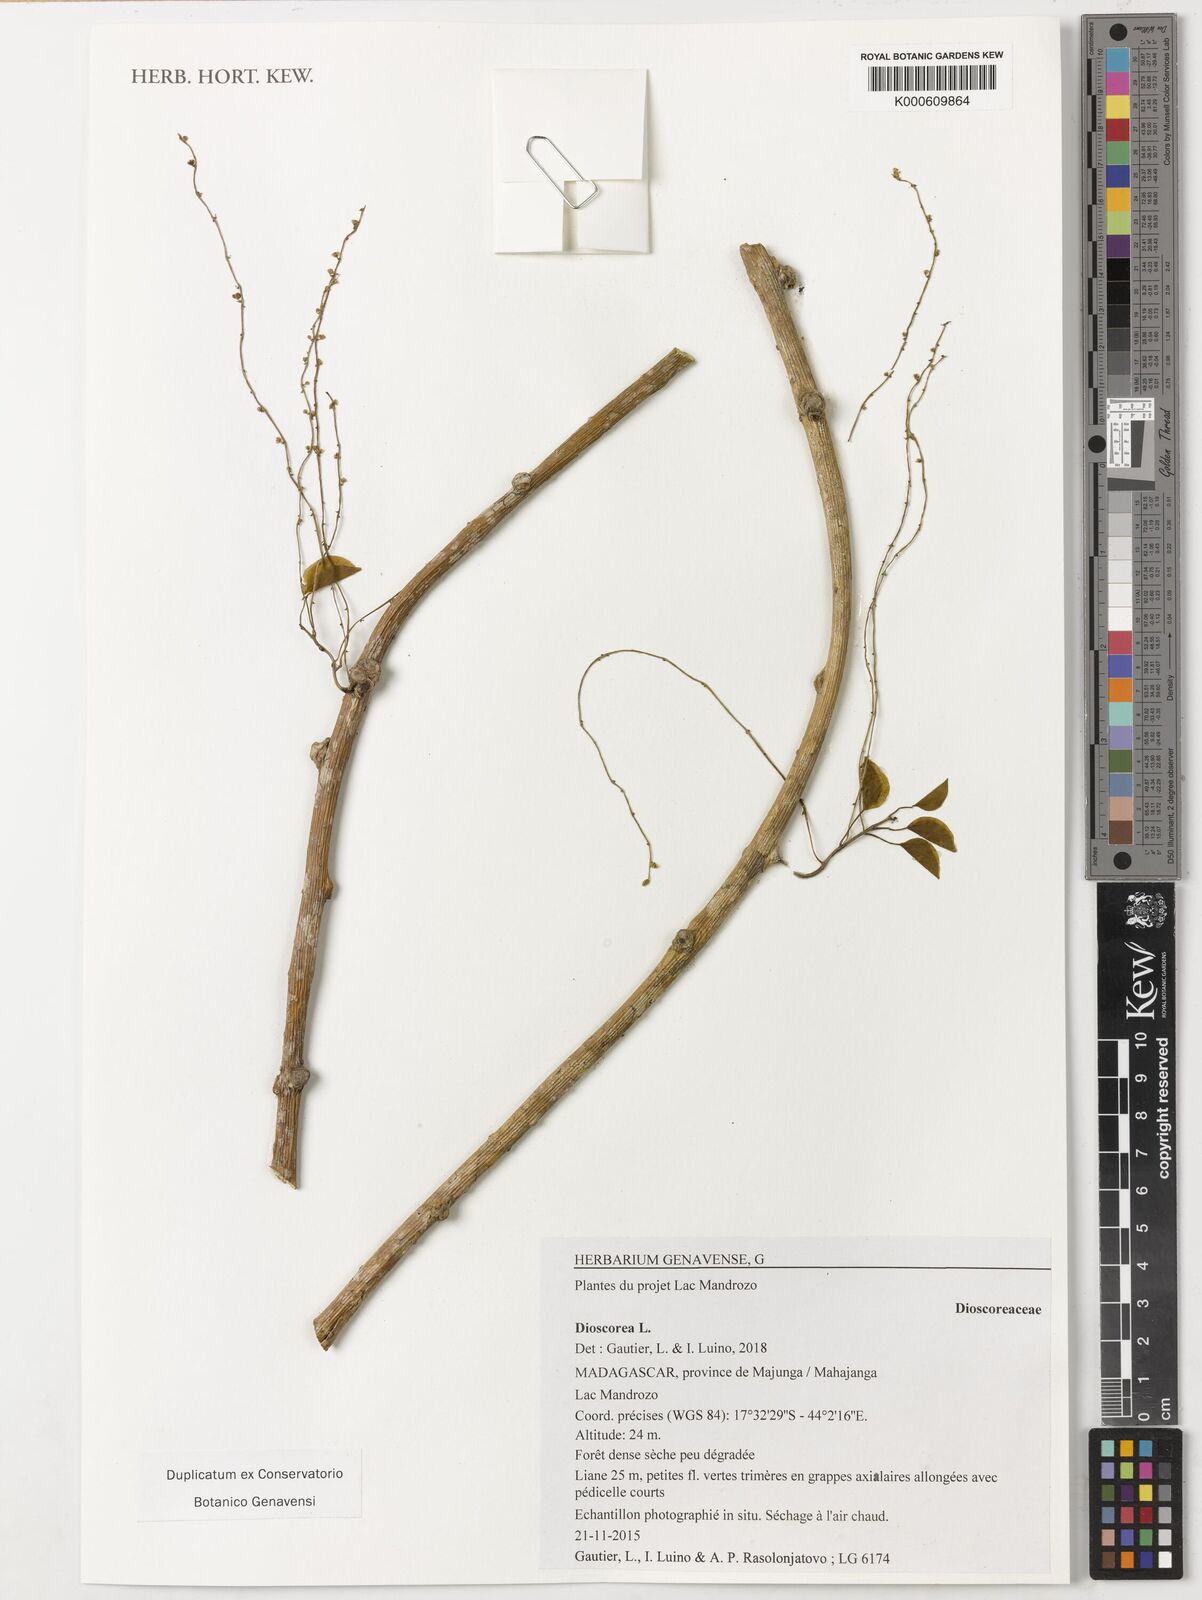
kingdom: Plantae
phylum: Tracheophyta
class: Liliopsida
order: Dioscoreales
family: Dioscoreaceae
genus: Dioscorea
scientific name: Dioscorea
